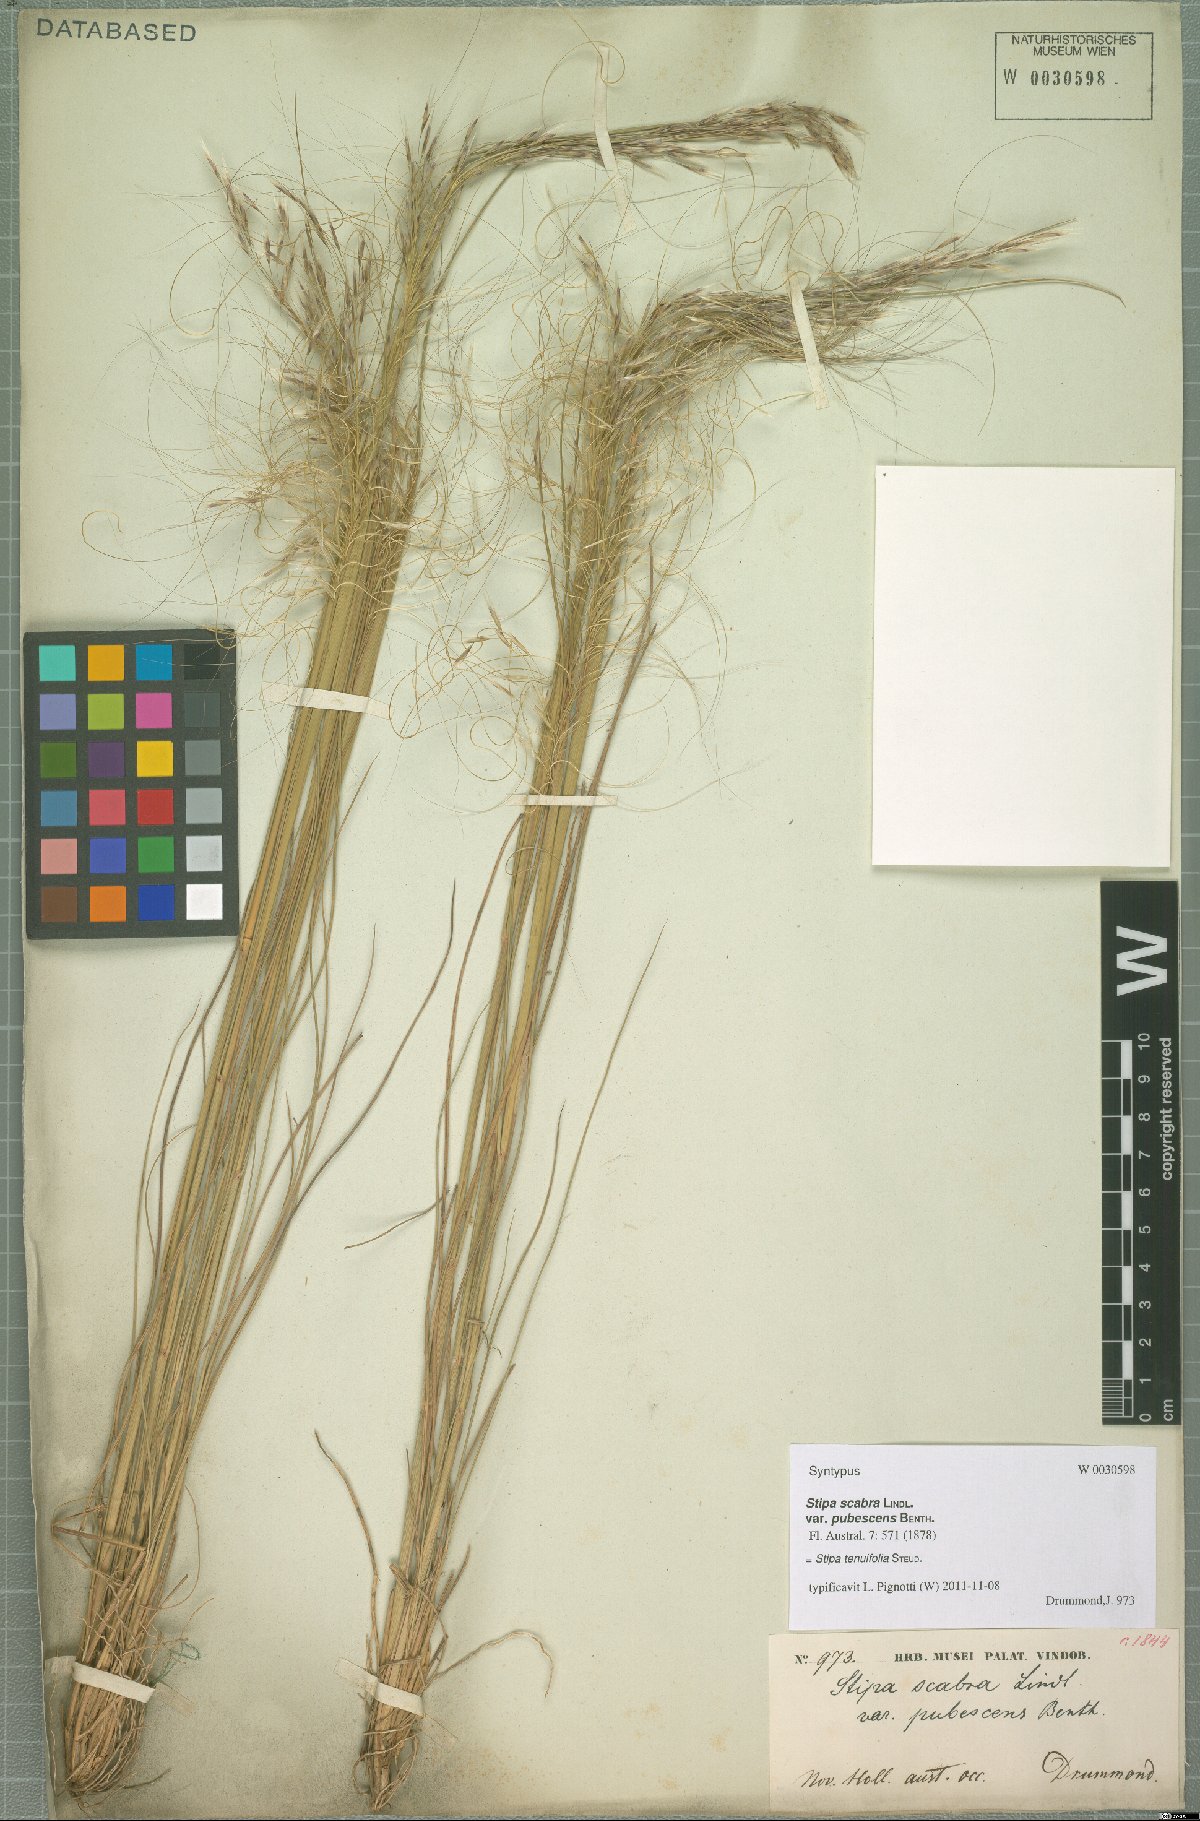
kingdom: Plantae
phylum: Tracheophyta
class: Liliopsida
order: Poales
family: Poaceae
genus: Austrostipa
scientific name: Austrostipa scabra
